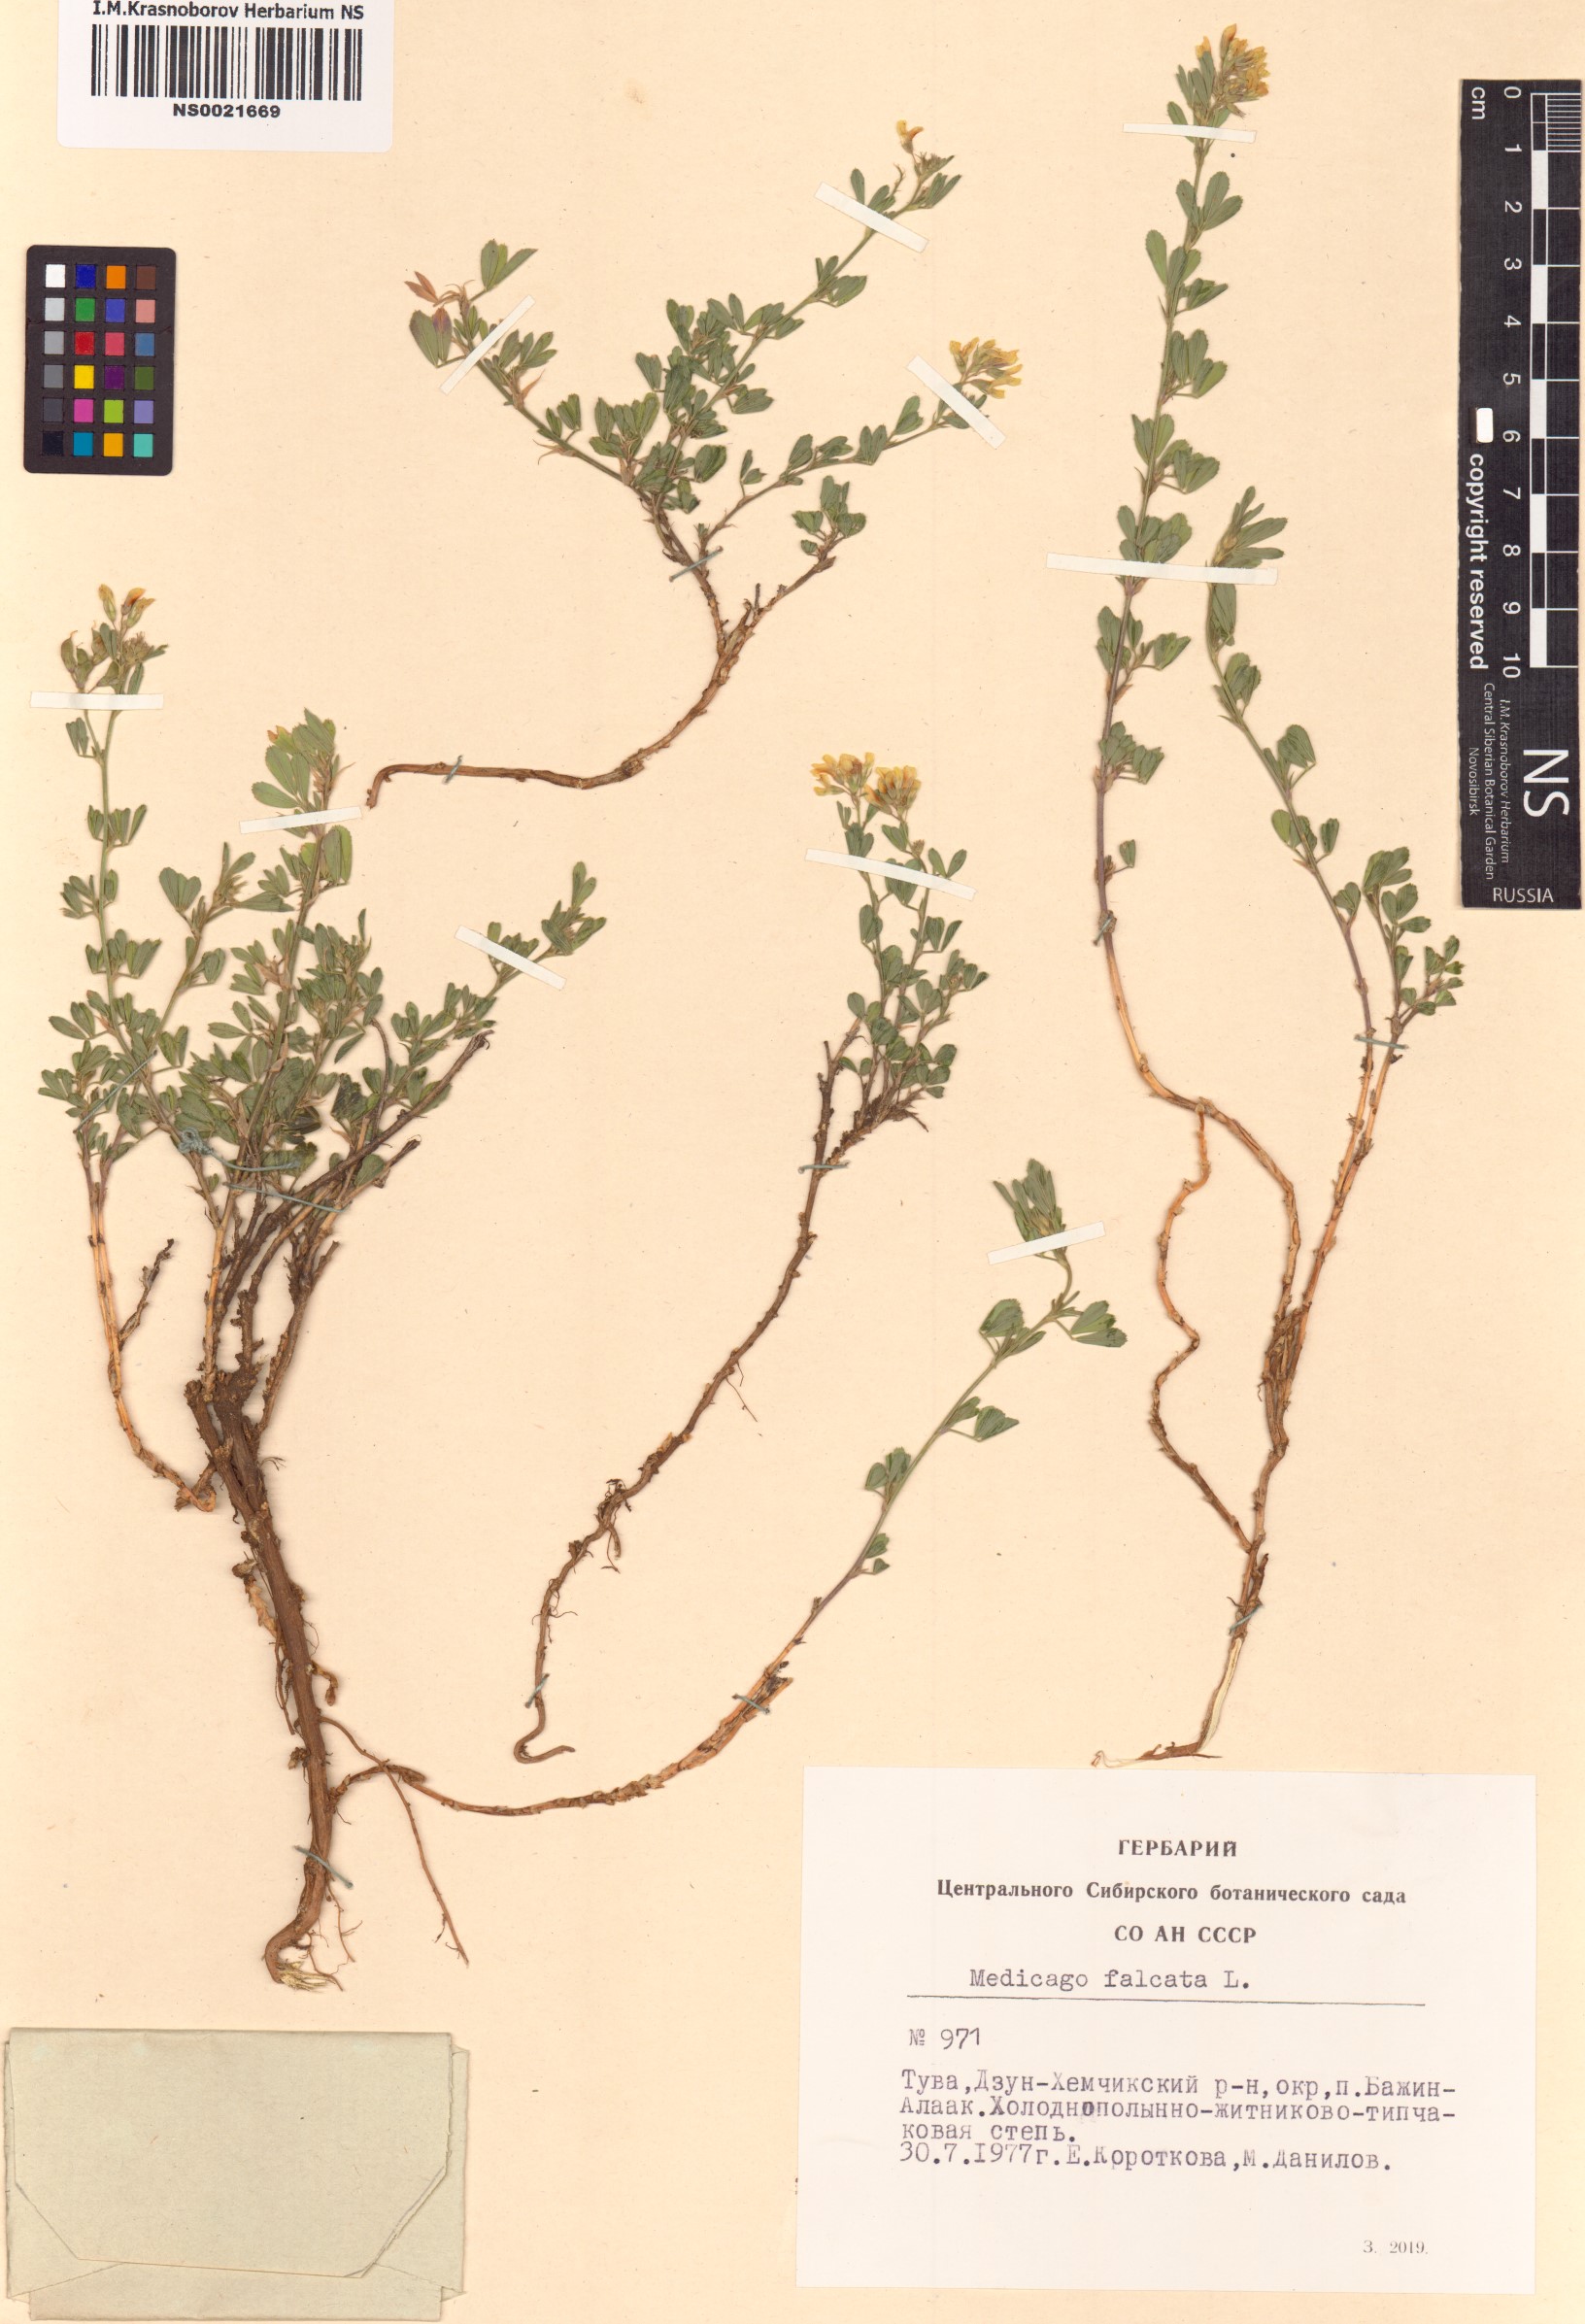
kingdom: Plantae
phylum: Tracheophyta
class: Magnoliopsida
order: Fabales
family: Fabaceae
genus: Medicago
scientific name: Medicago falcata
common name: Sickle medick
